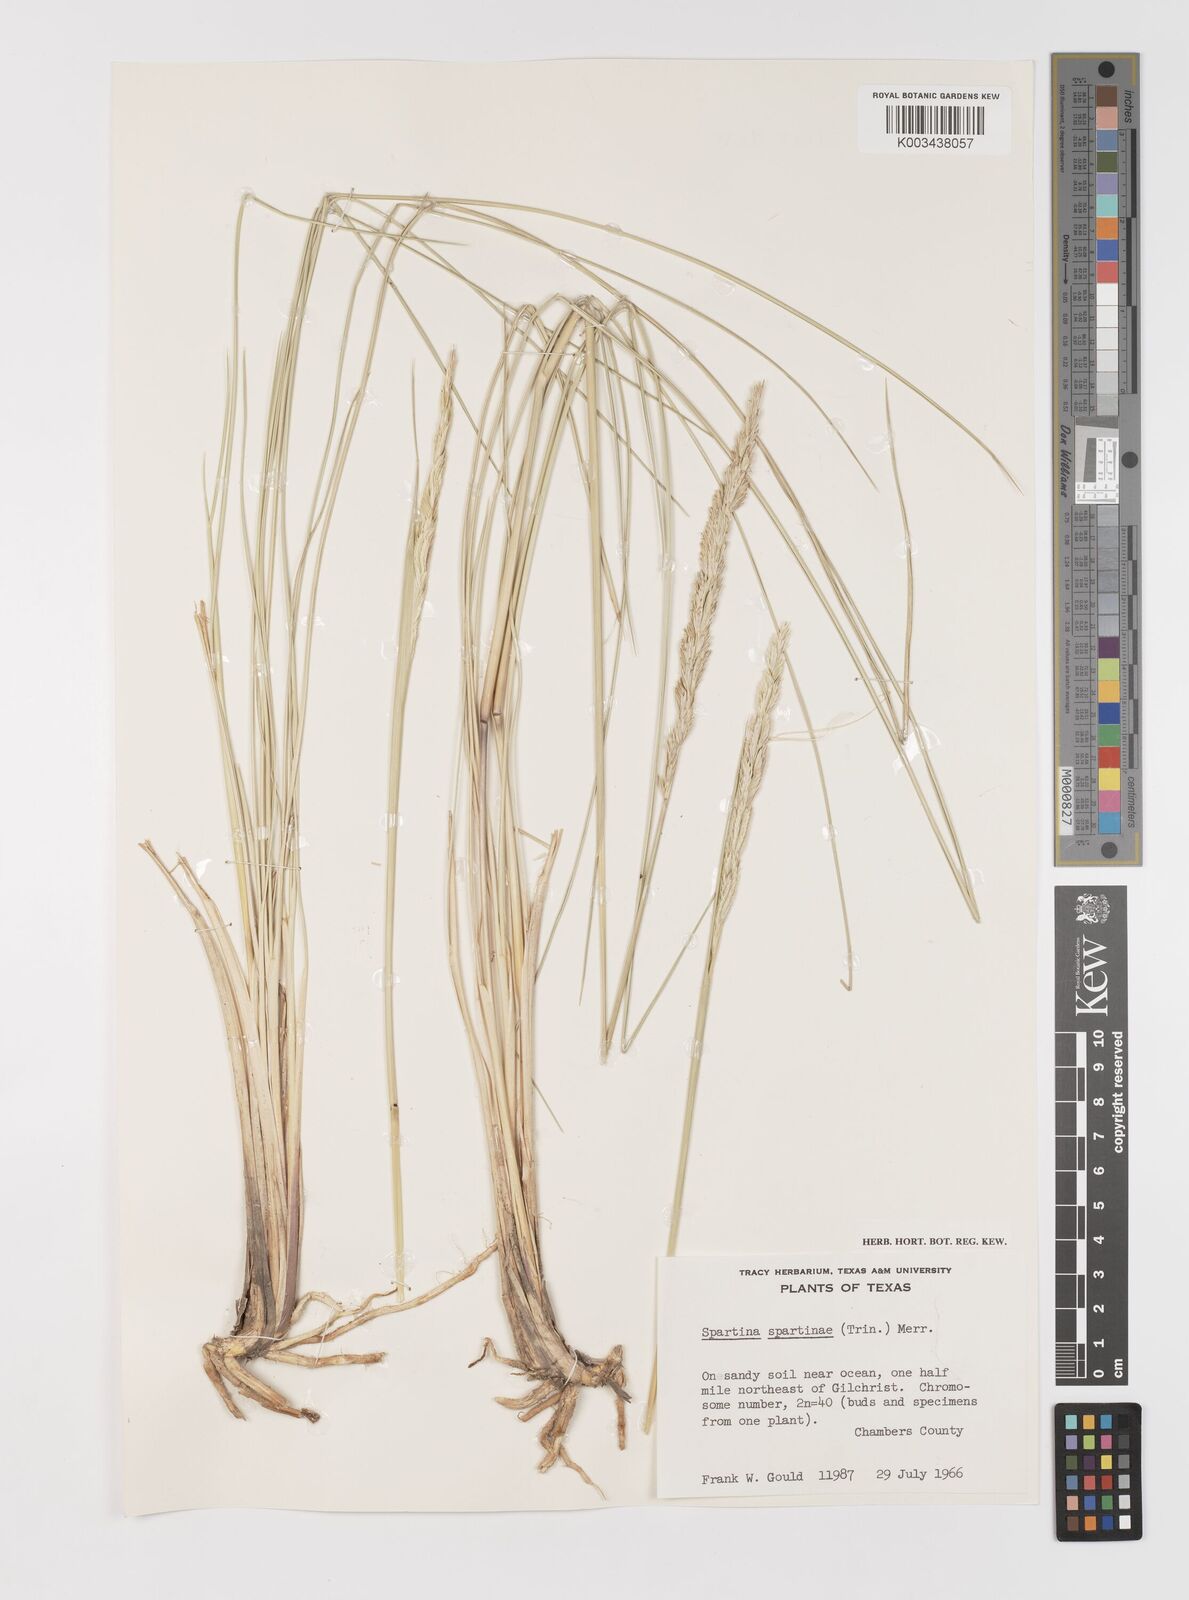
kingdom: Plantae
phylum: Tracheophyta
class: Liliopsida
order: Poales
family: Poaceae
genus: Sporobolus
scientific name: Sporobolus spartinae
